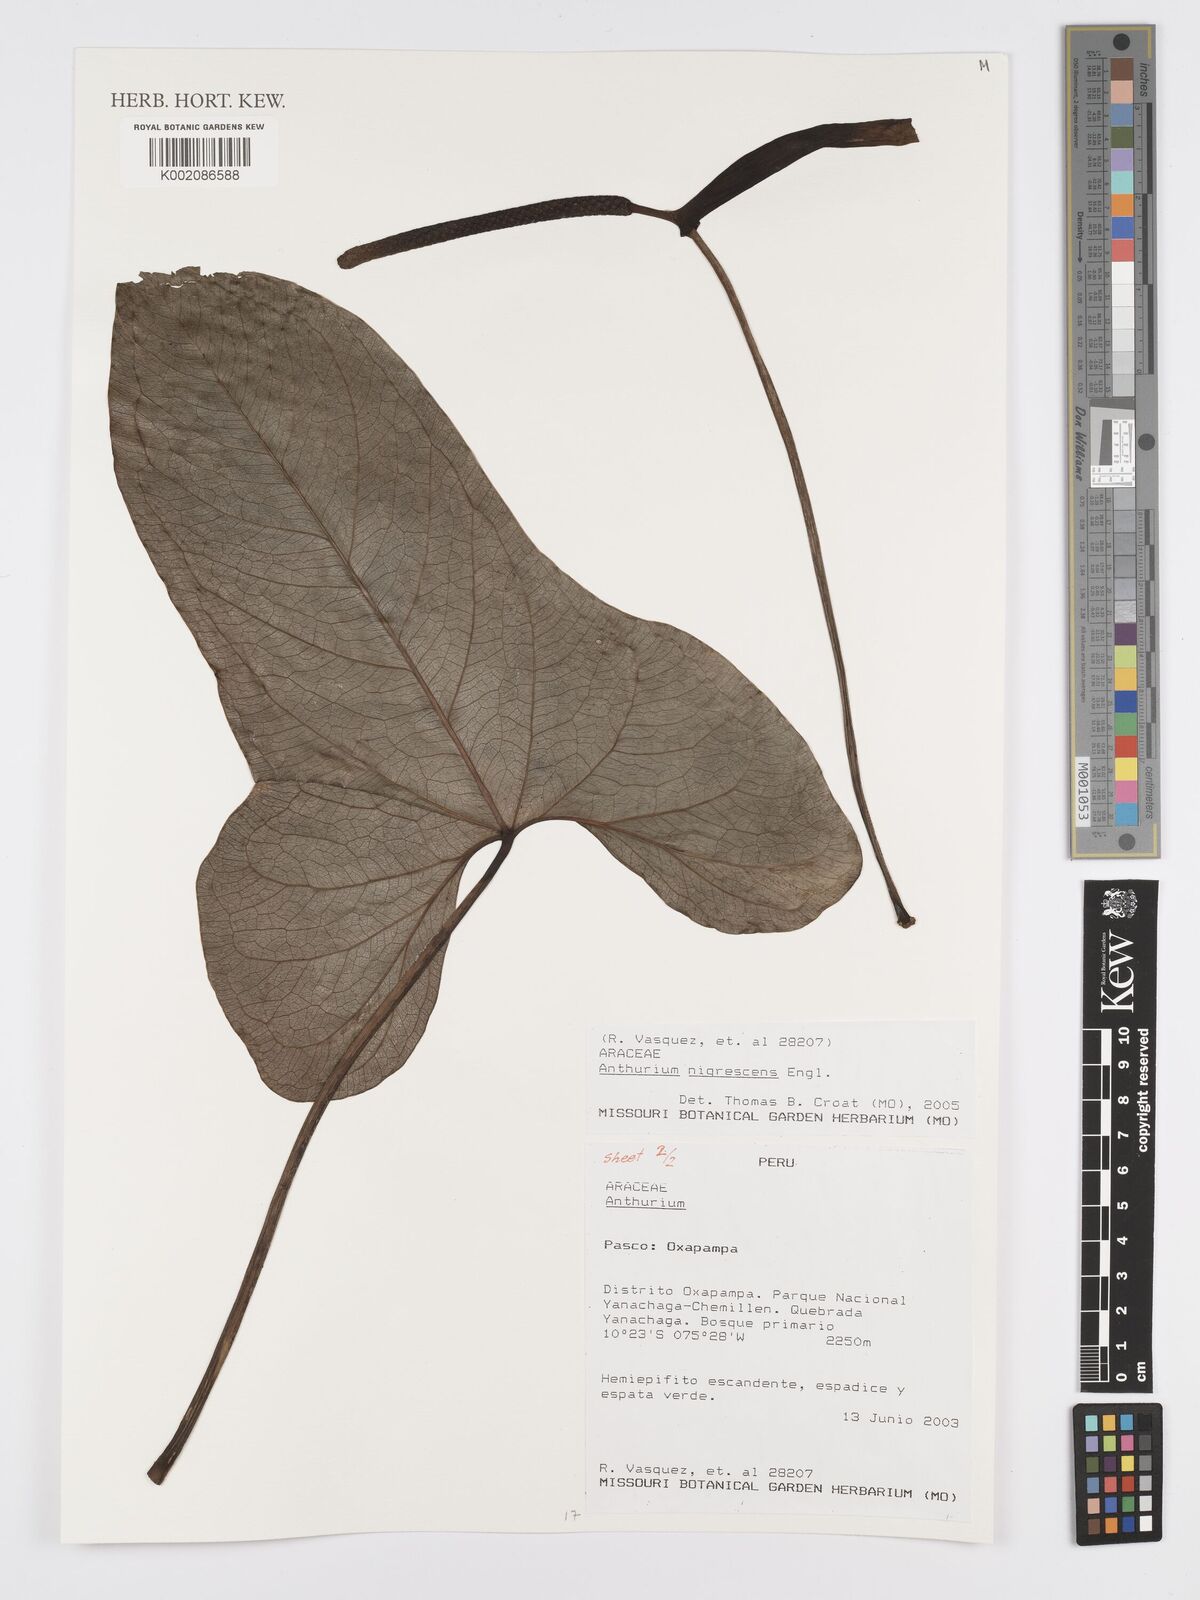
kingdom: Plantae
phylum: Tracheophyta
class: Liliopsida
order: Alismatales
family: Araceae
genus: Anthurium
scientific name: Anthurium nigrescens
